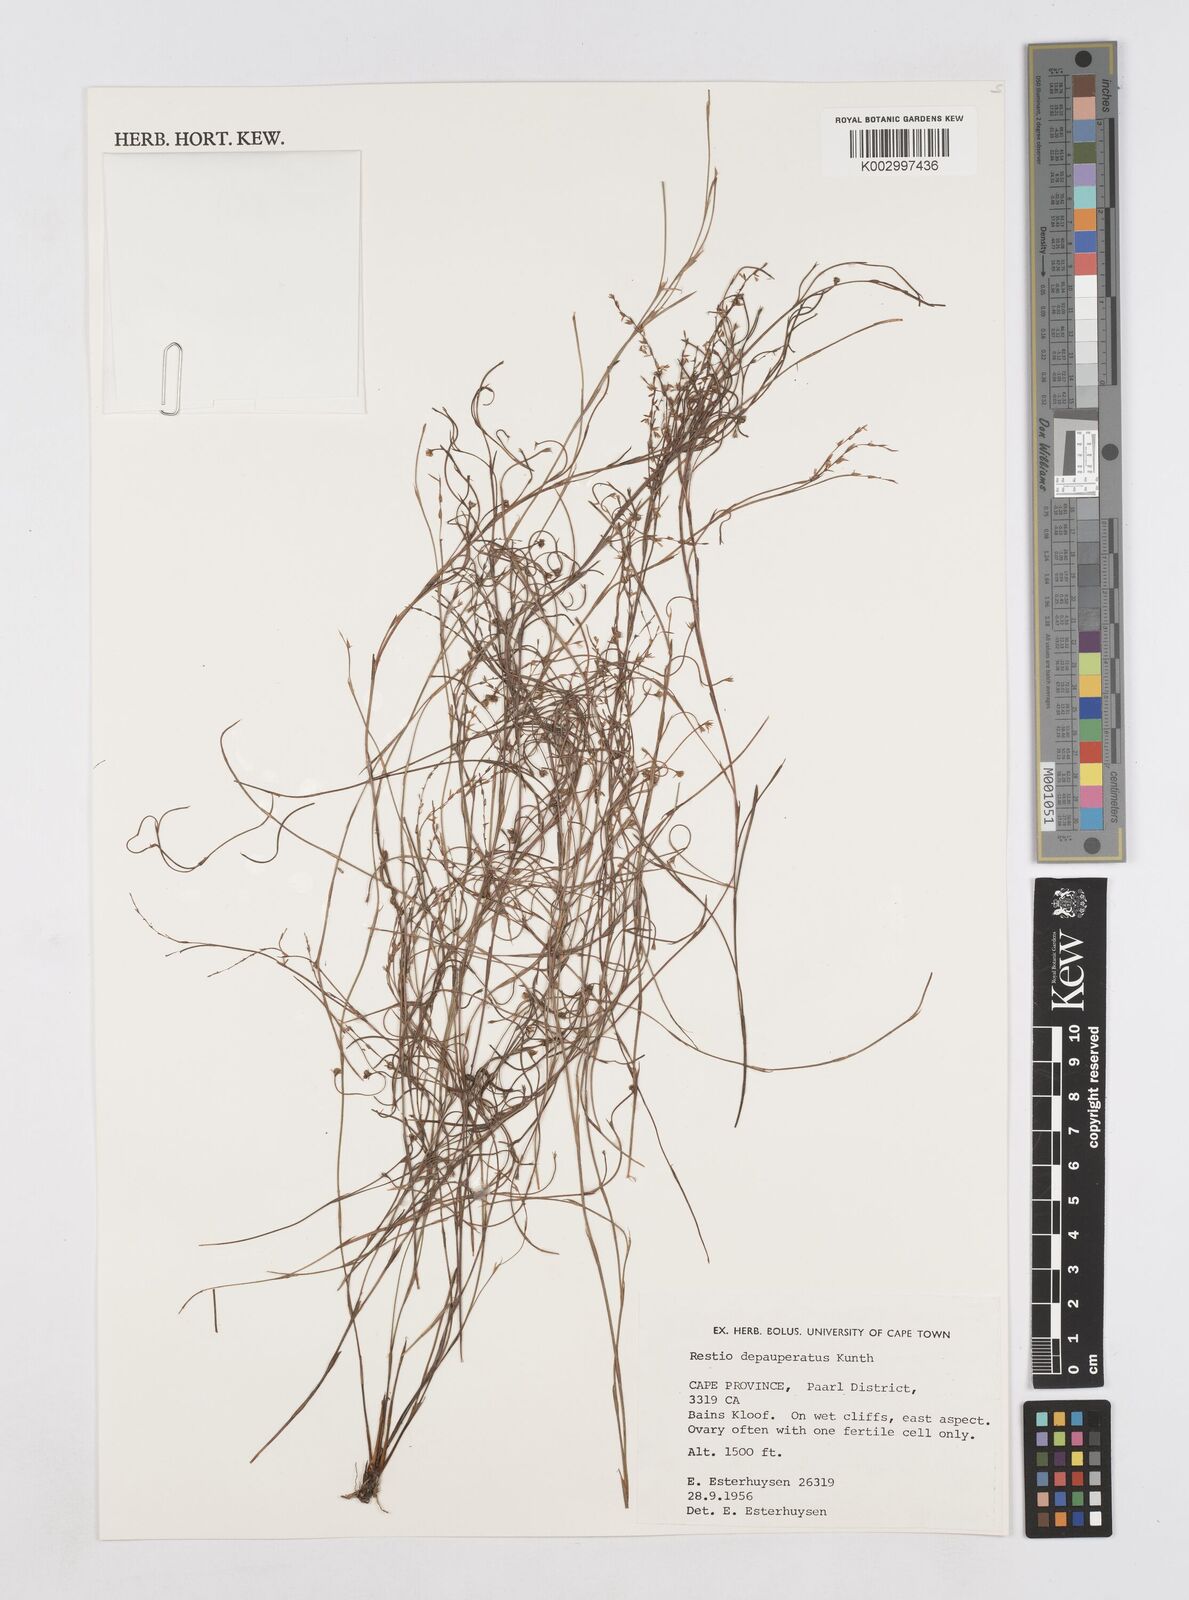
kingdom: Plantae
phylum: Tracheophyta
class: Liliopsida
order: Poales
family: Restionaceae
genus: Platycaulos
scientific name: Platycaulos depauperatus
